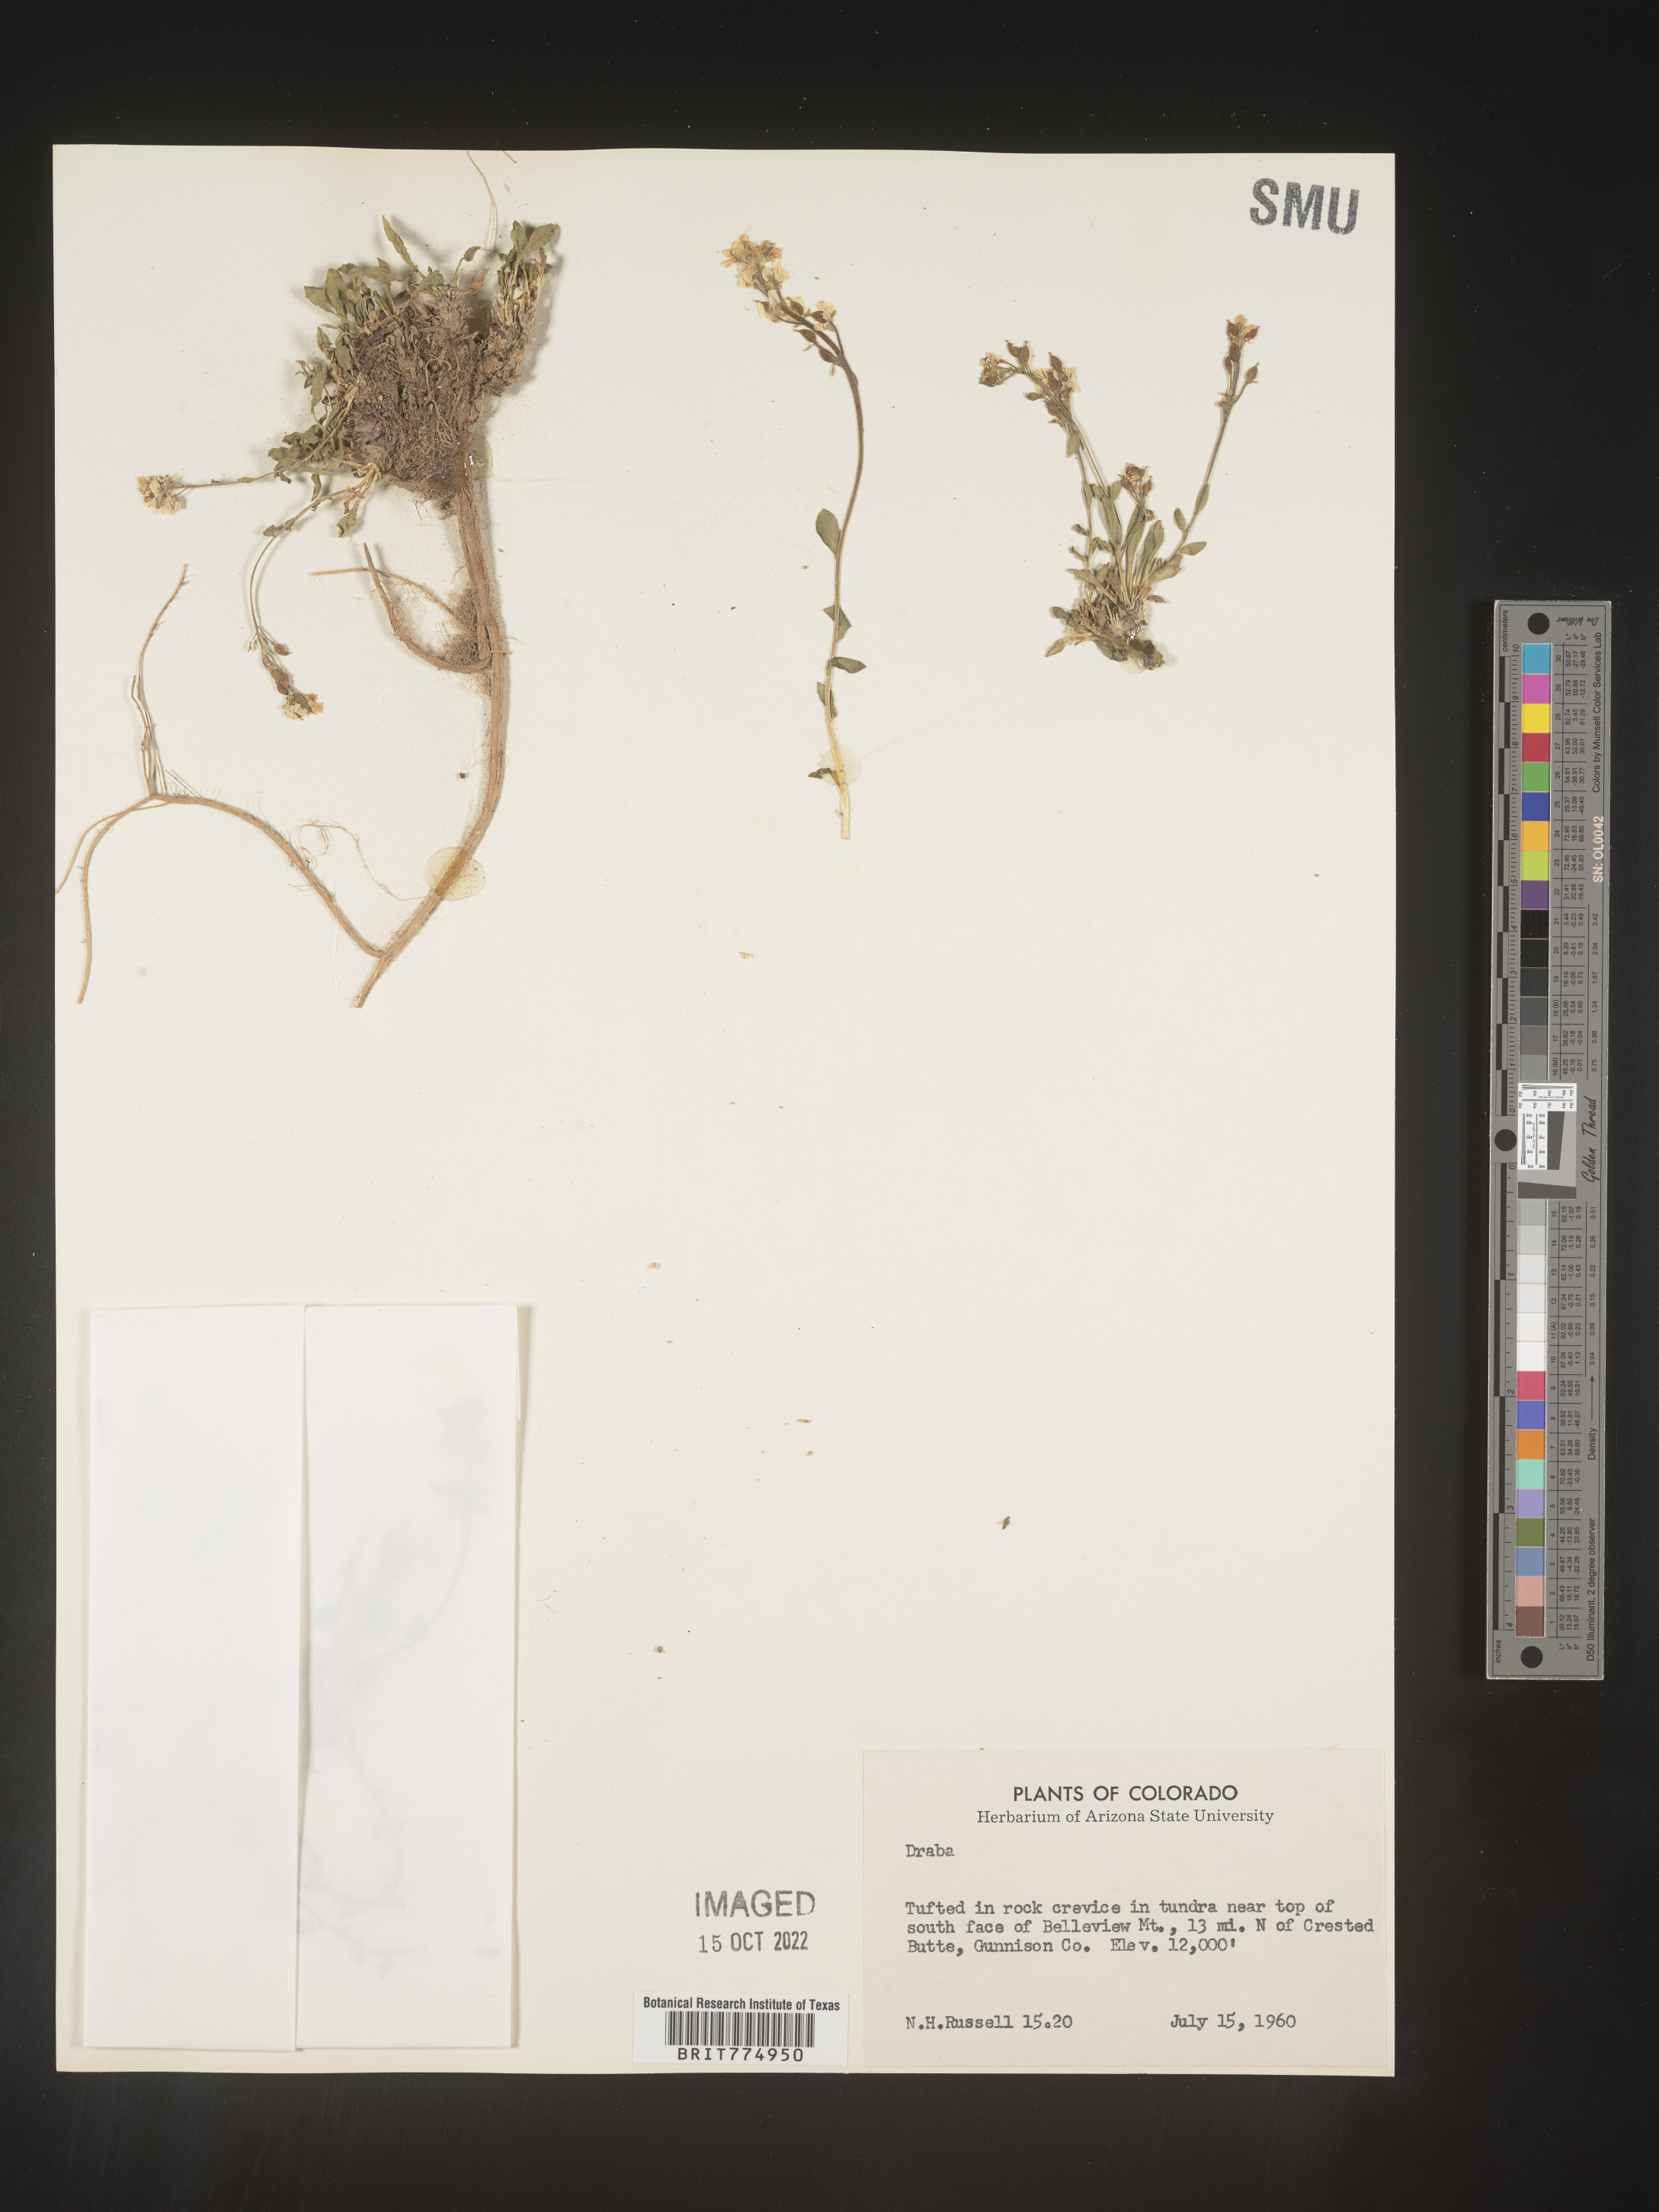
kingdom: Plantae
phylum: Tracheophyta
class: Magnoliopsida
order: Brassicales
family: Brassicaceae
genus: Draba
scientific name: Draba
